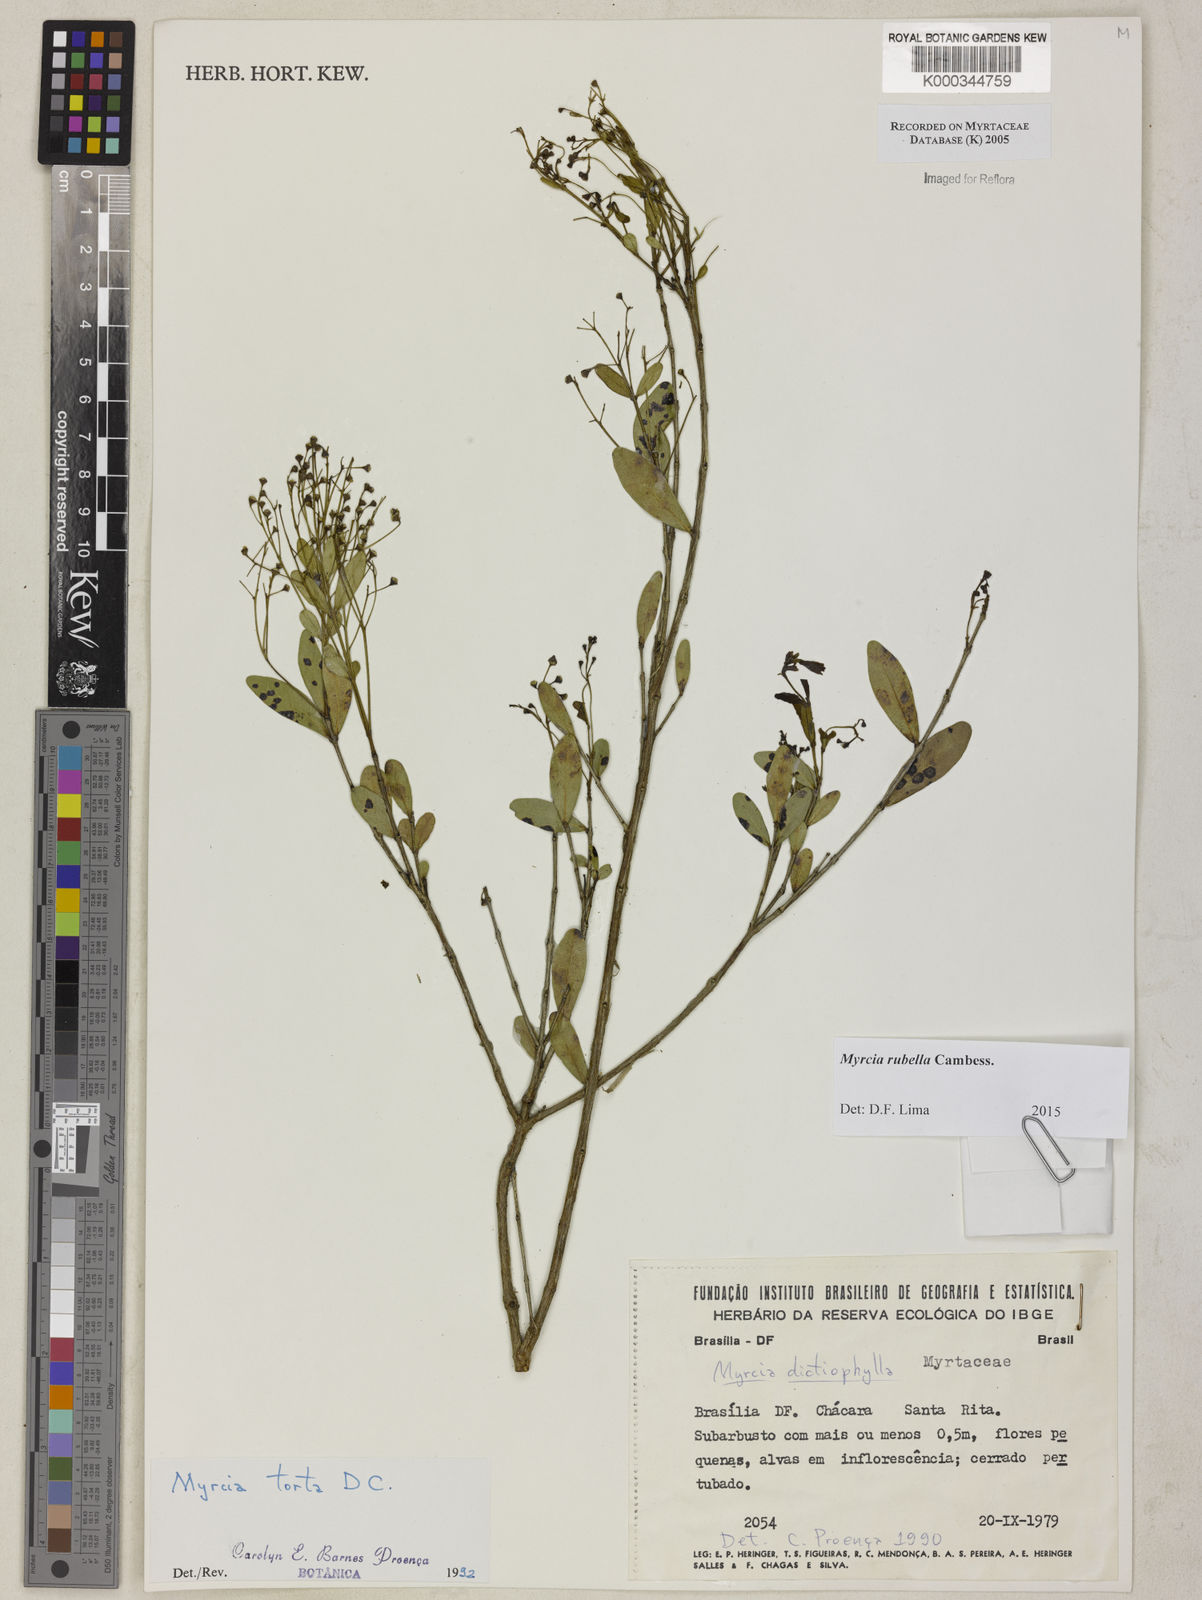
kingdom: Plantae
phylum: Tracheophyta
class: Magnoliopsida
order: Myrtales
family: Myrtaceae
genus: Myrcia
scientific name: Myrcia guianensis
